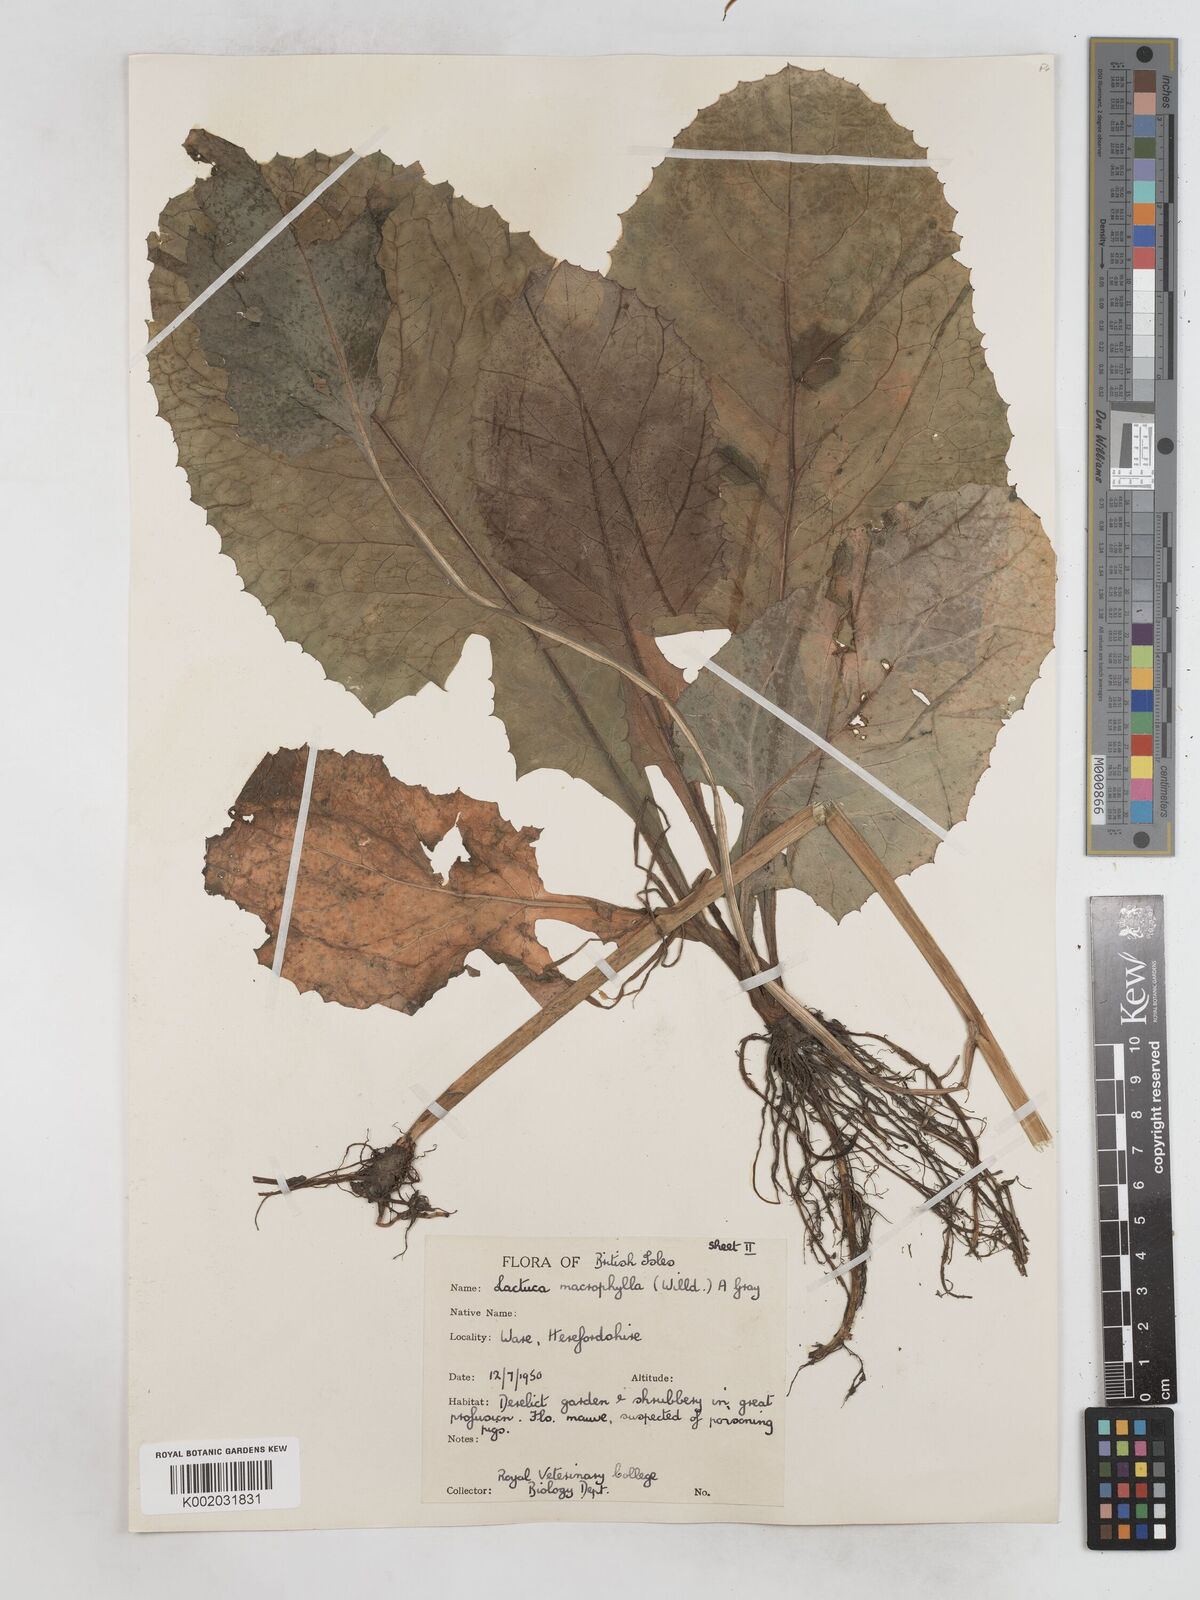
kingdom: Plantae
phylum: Tracheophyta
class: Magnoliopsida
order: Asterales
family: Asteraceae
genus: Lactuca
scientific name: Lactuca macrophylla
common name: Common blue-sow-thistle
